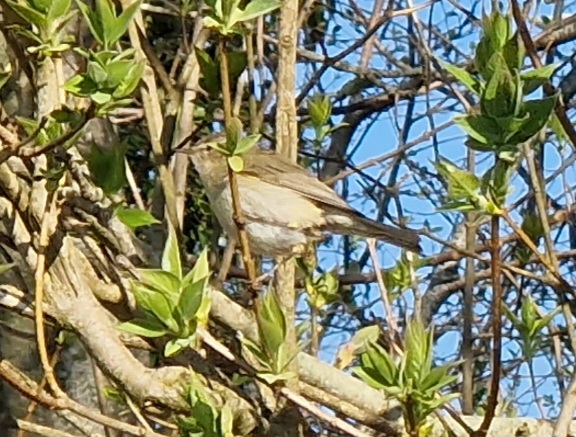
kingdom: Animalia
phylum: Chordata
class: Aves
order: Passeriformes
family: Phylloscopidae
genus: Phylloscopus
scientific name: Phylloscopus collybita
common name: Gransanger
